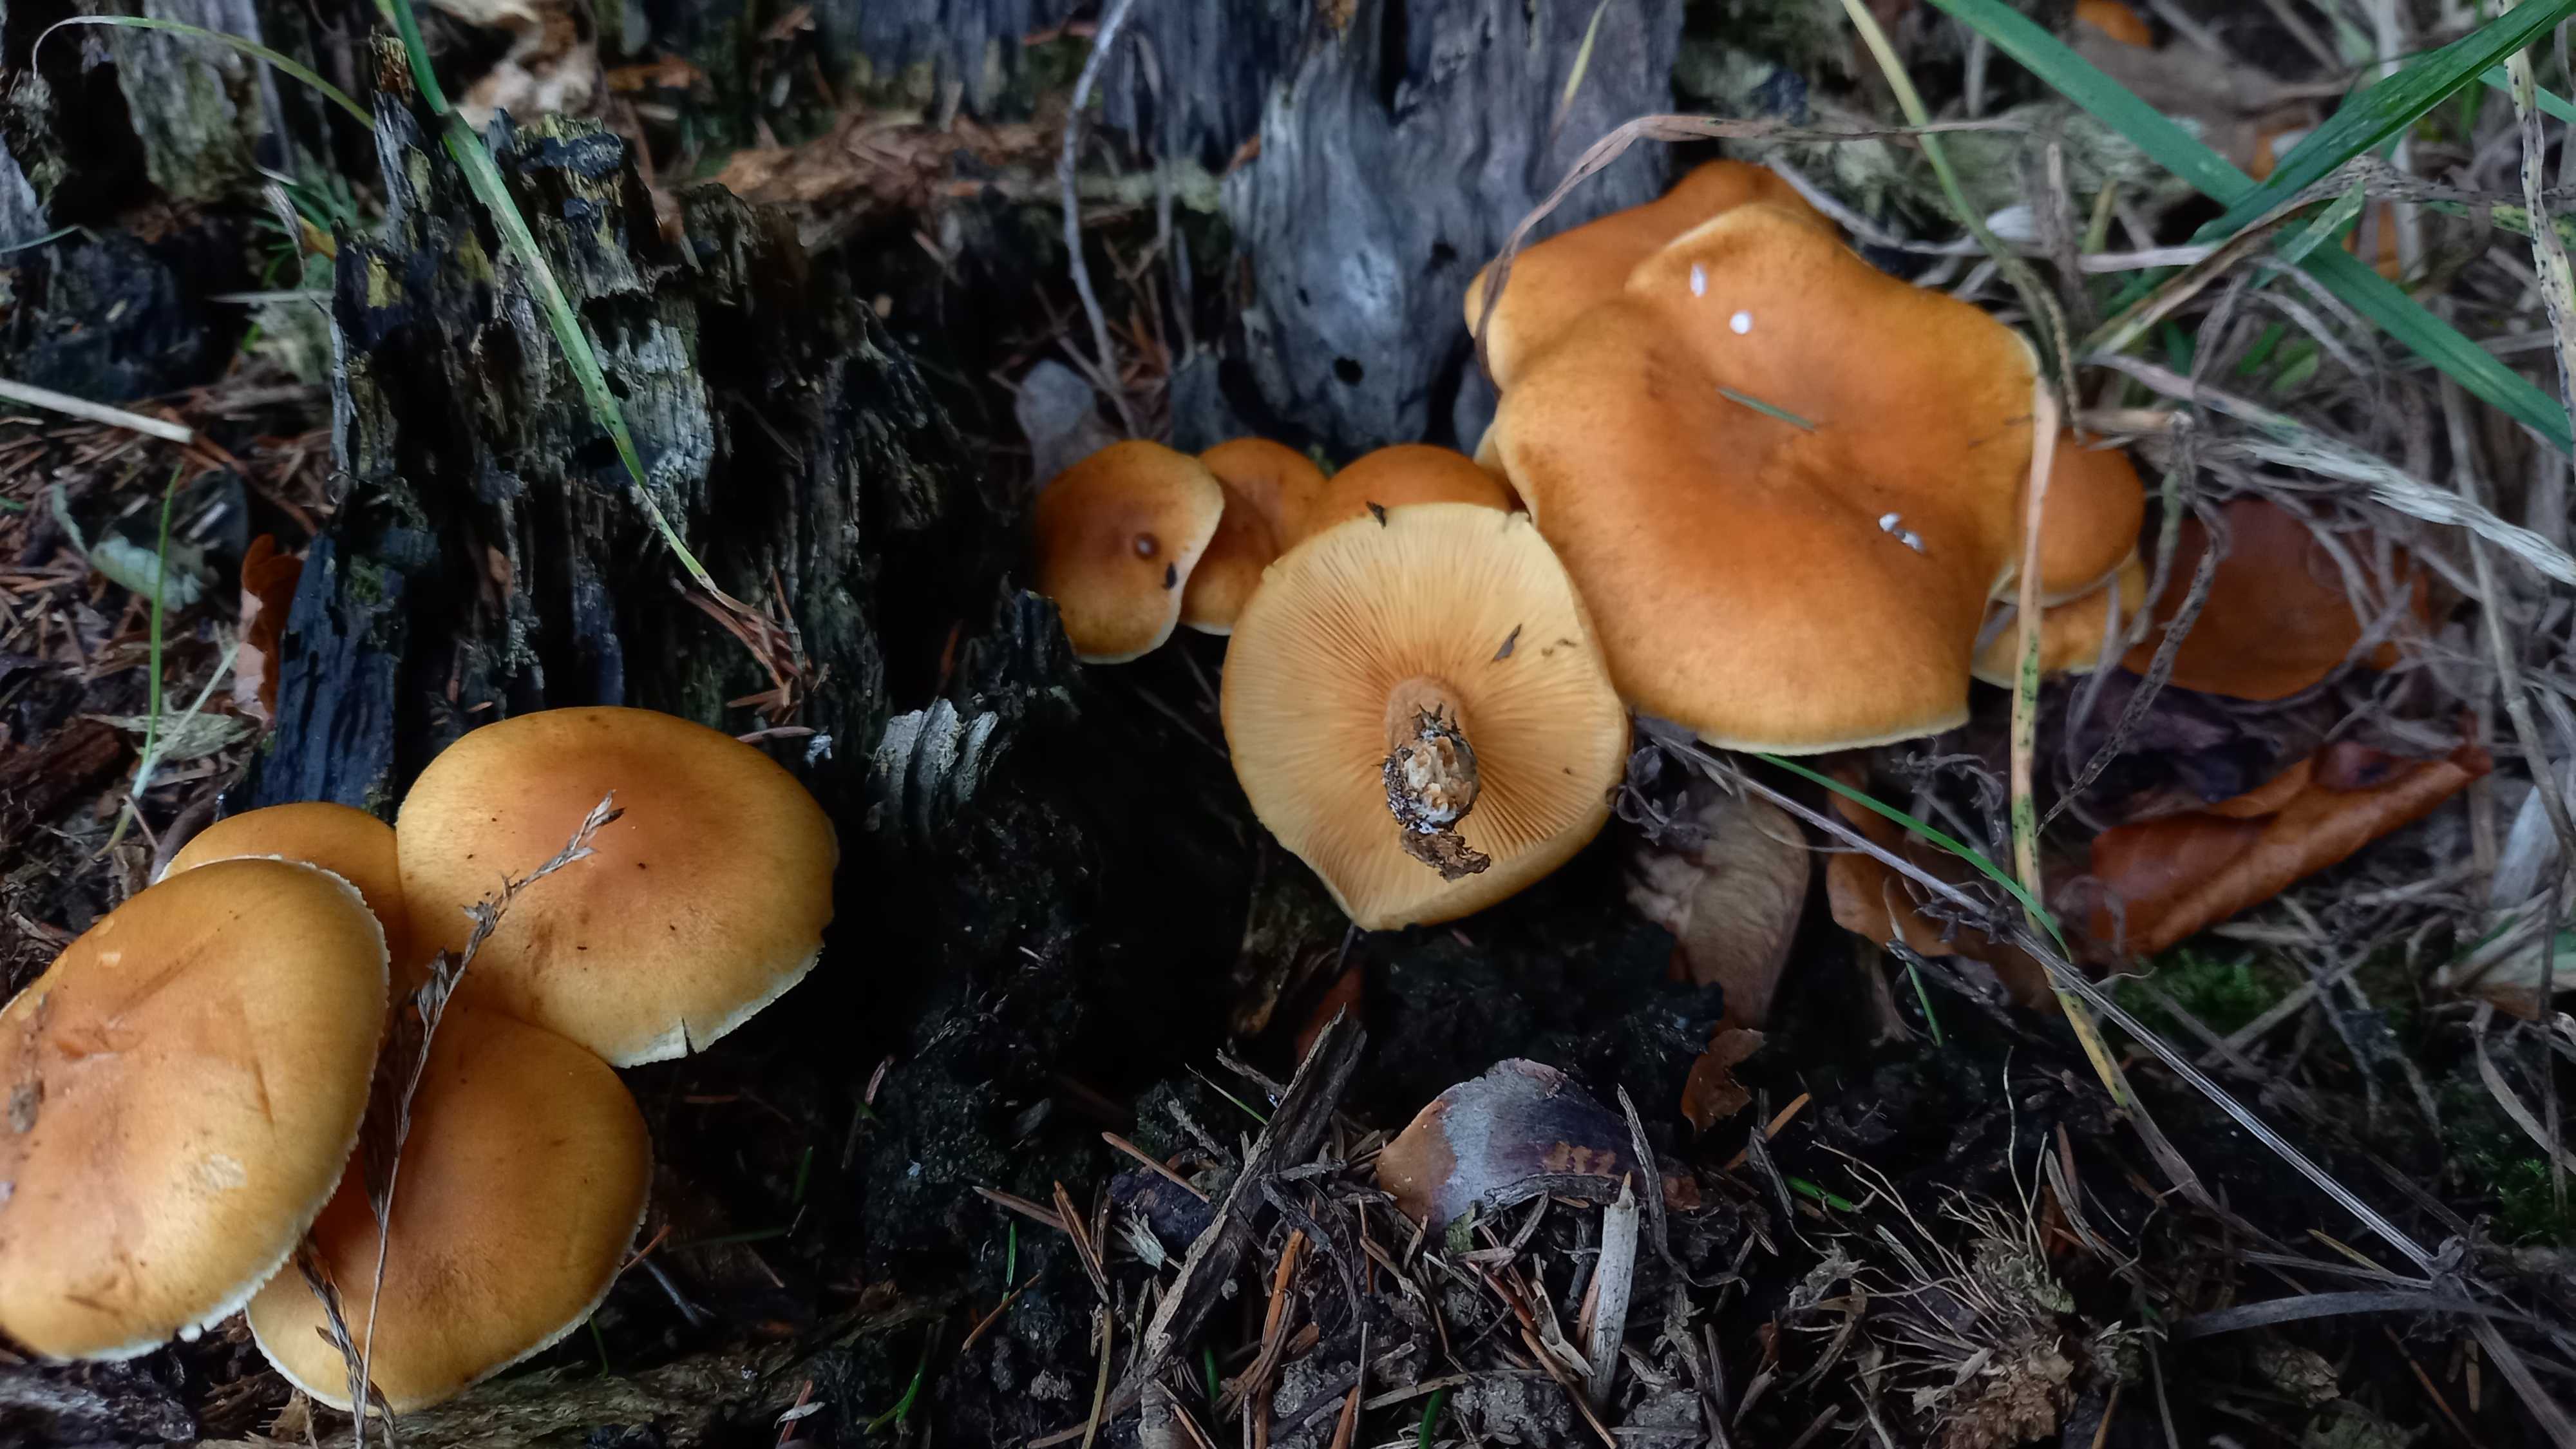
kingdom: Fungi
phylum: Basidiomycota
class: Agaricomycetes
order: Agaricales
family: Hymenogastraceae
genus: Gymnopilus
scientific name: Gymnopilus penetrans
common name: plettet flammehat
